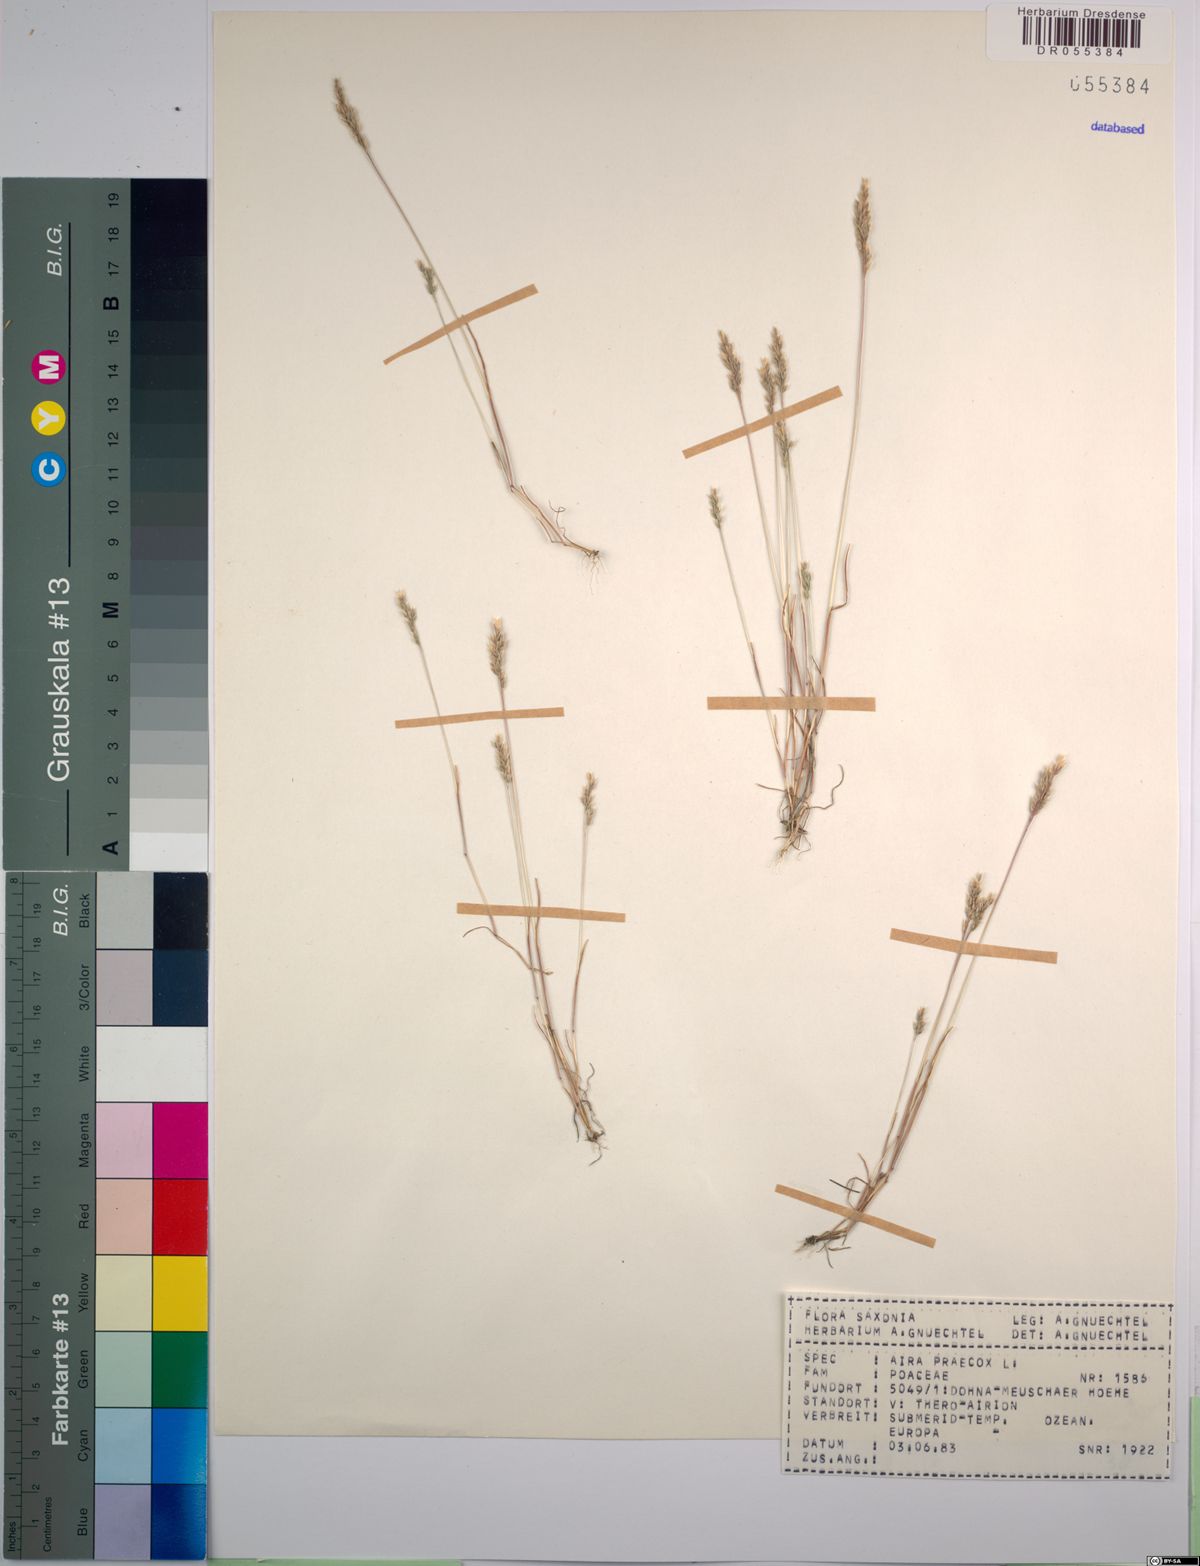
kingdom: Plantae
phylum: Tracheophyta
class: Liliopsida
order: Poales
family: Poaceae
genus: Aira
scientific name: Aira praecox
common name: Early hair-grass
